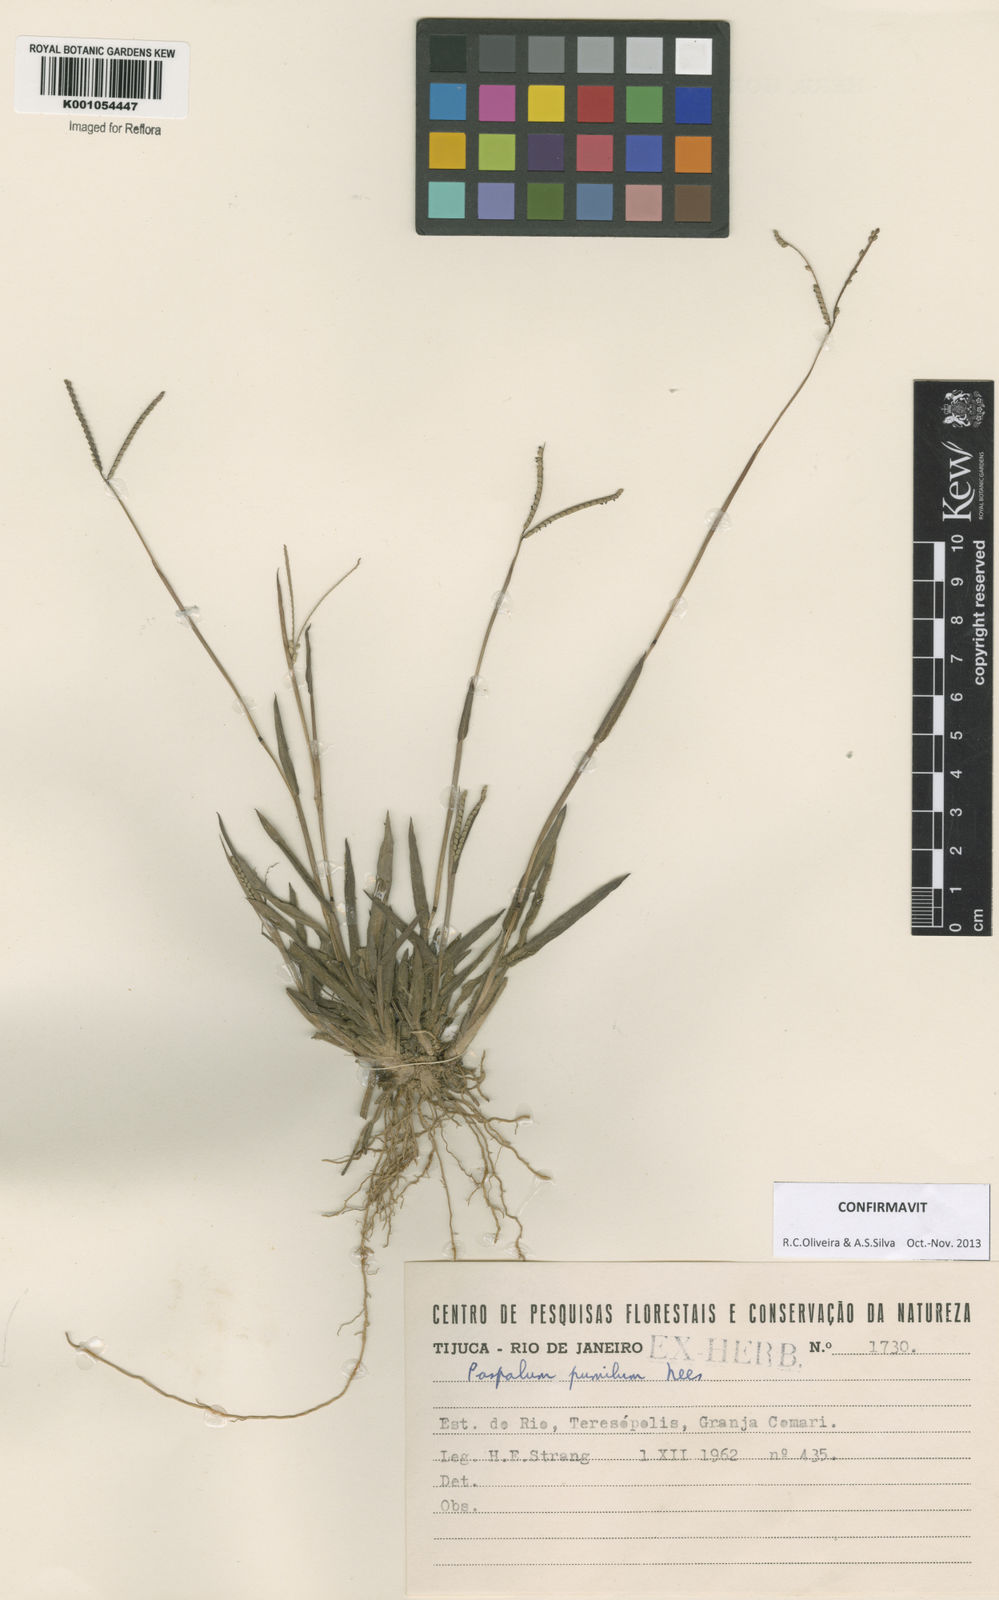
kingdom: Plantae
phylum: Tracheophyta
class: Liliopsida
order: Poales
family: Poaceae
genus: Paspalum
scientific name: Paspalum pumilum
